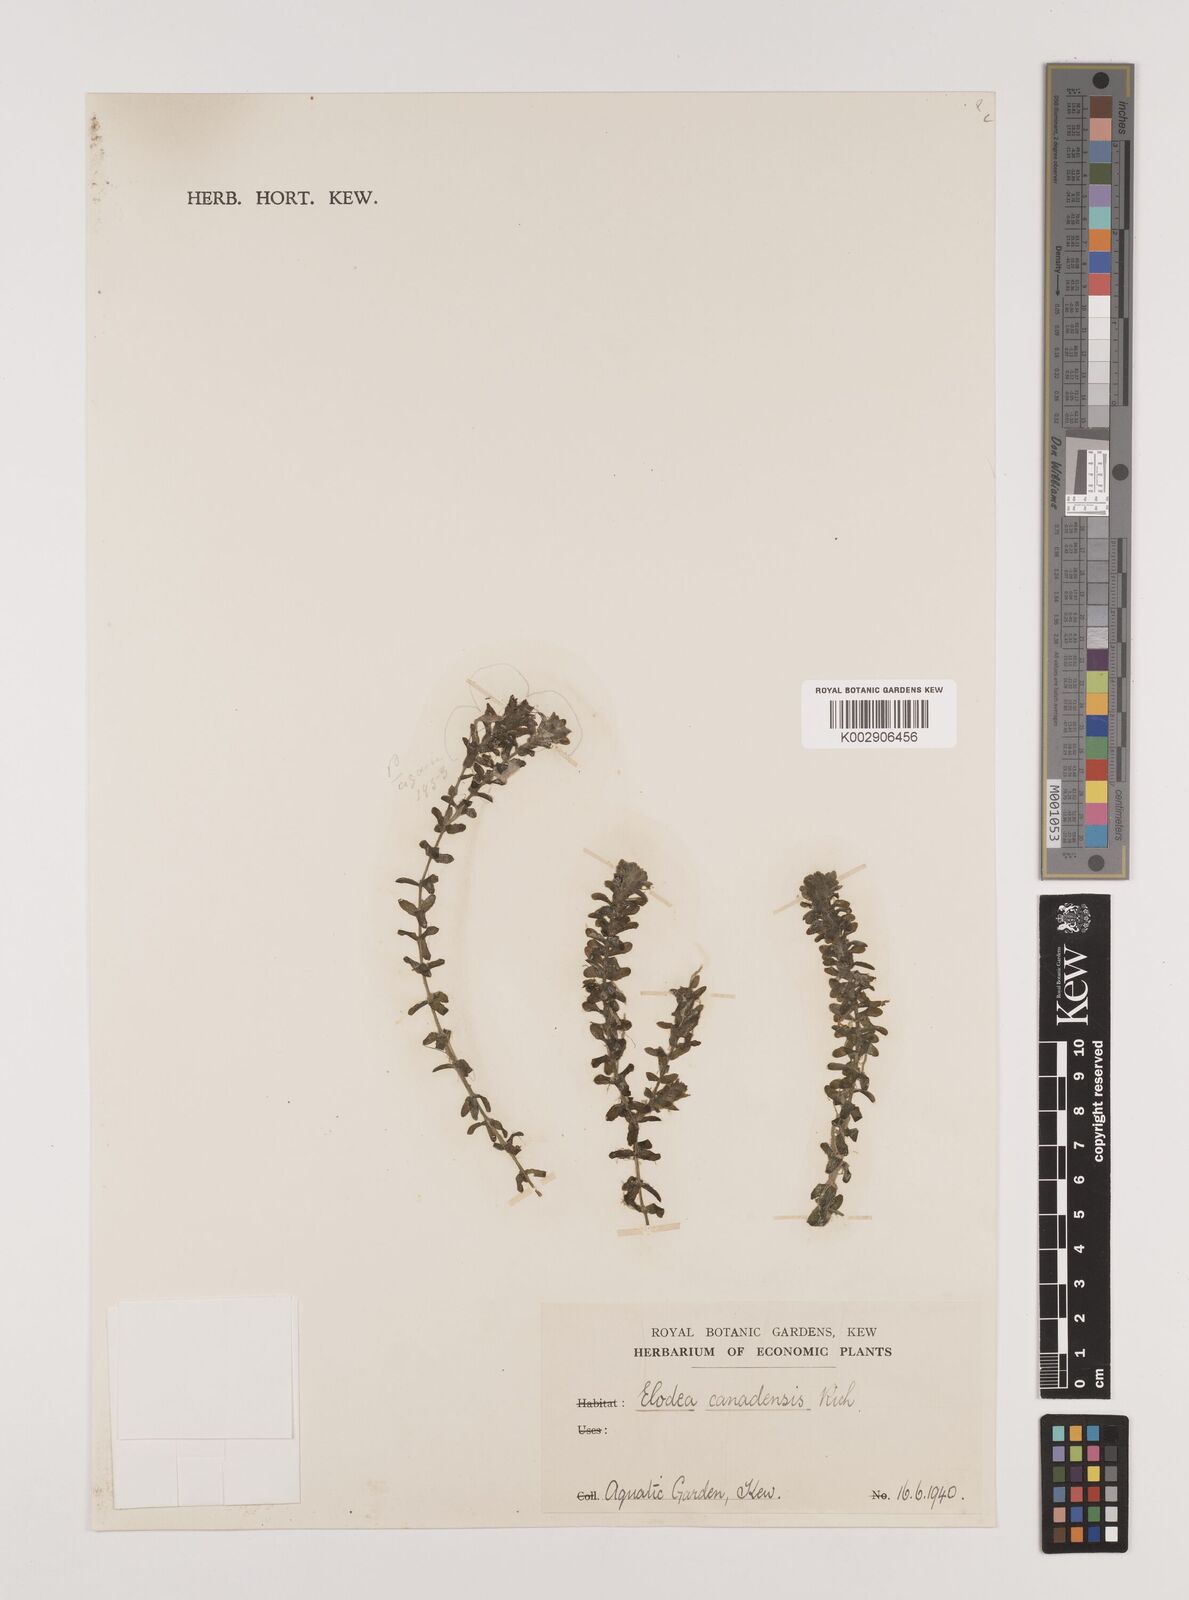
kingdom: Plantae
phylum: Tracheophyta
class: Liliopsida
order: Alismatales
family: Hydrocharitaceae
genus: Elodea
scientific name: Elodea canadensis
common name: Canadian waterweed
